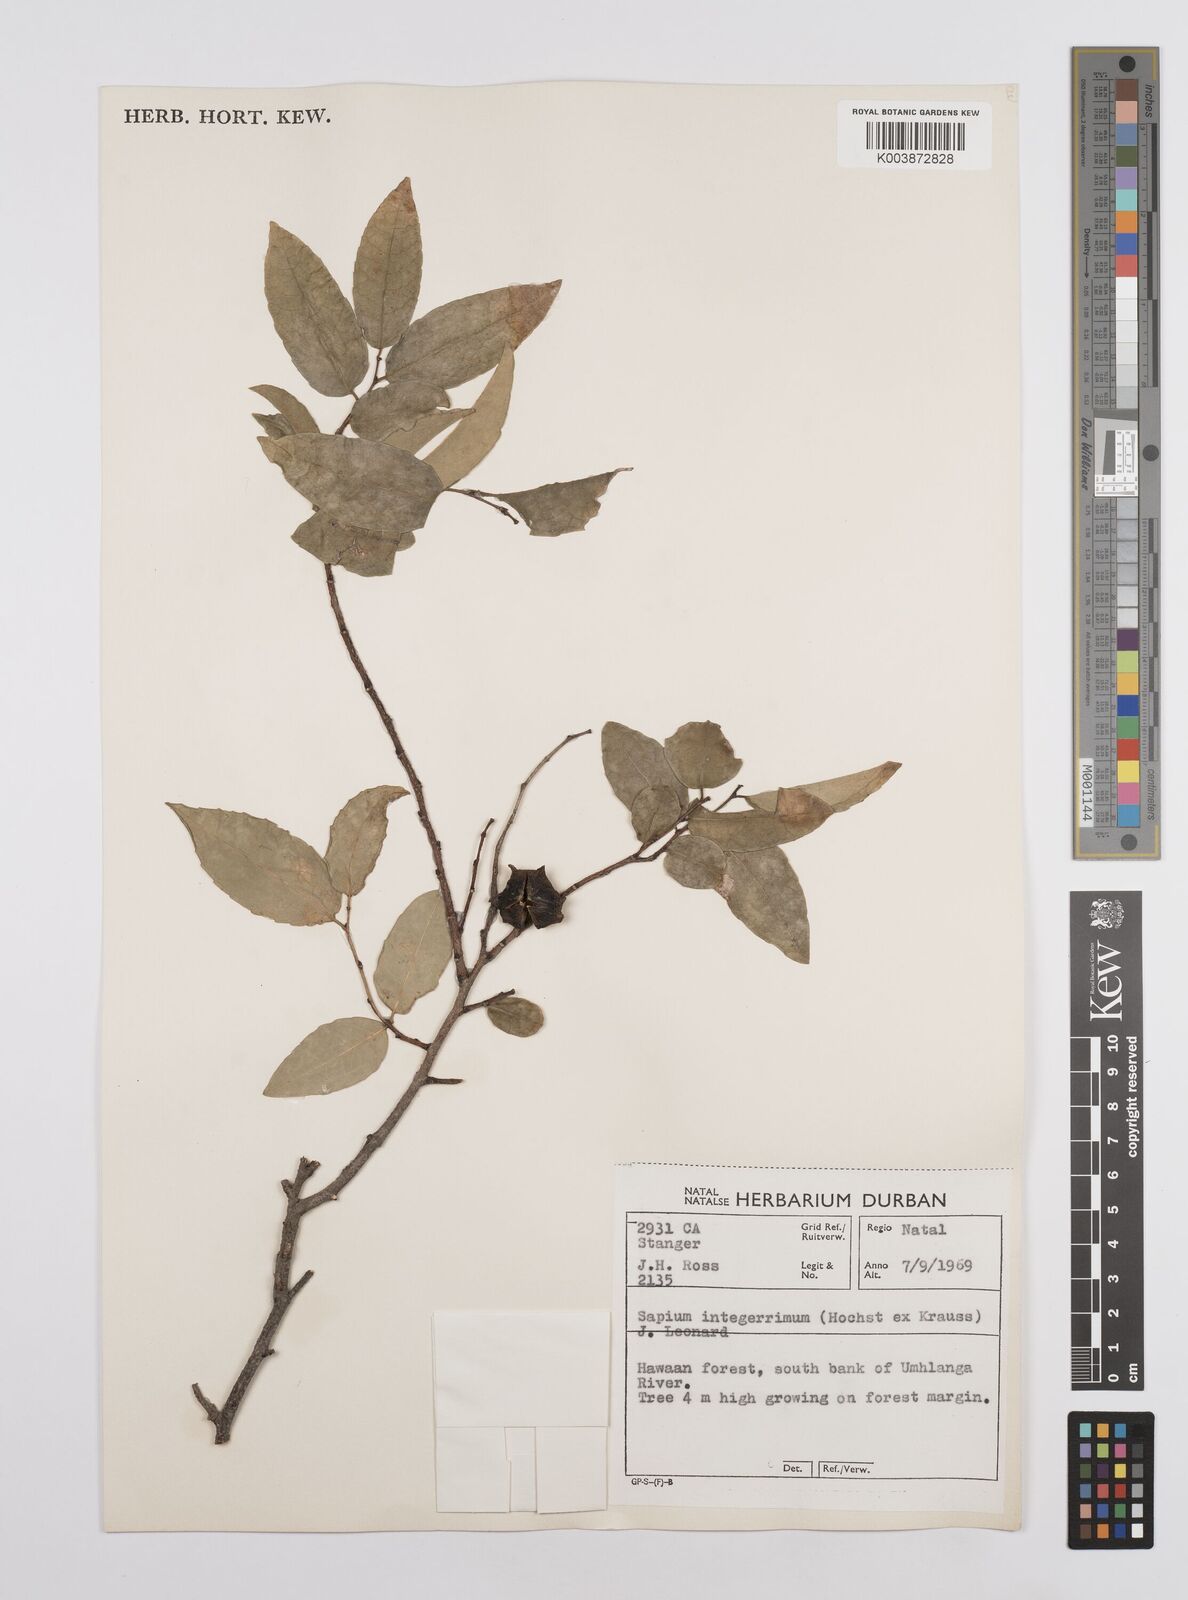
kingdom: Plantae
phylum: Tracheophyta
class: Magnoliopsida
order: Malpighiales
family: Euphorbiaceae
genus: Sclerocroton
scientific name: Sclerocroton integerrimus
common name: Duiker berry
